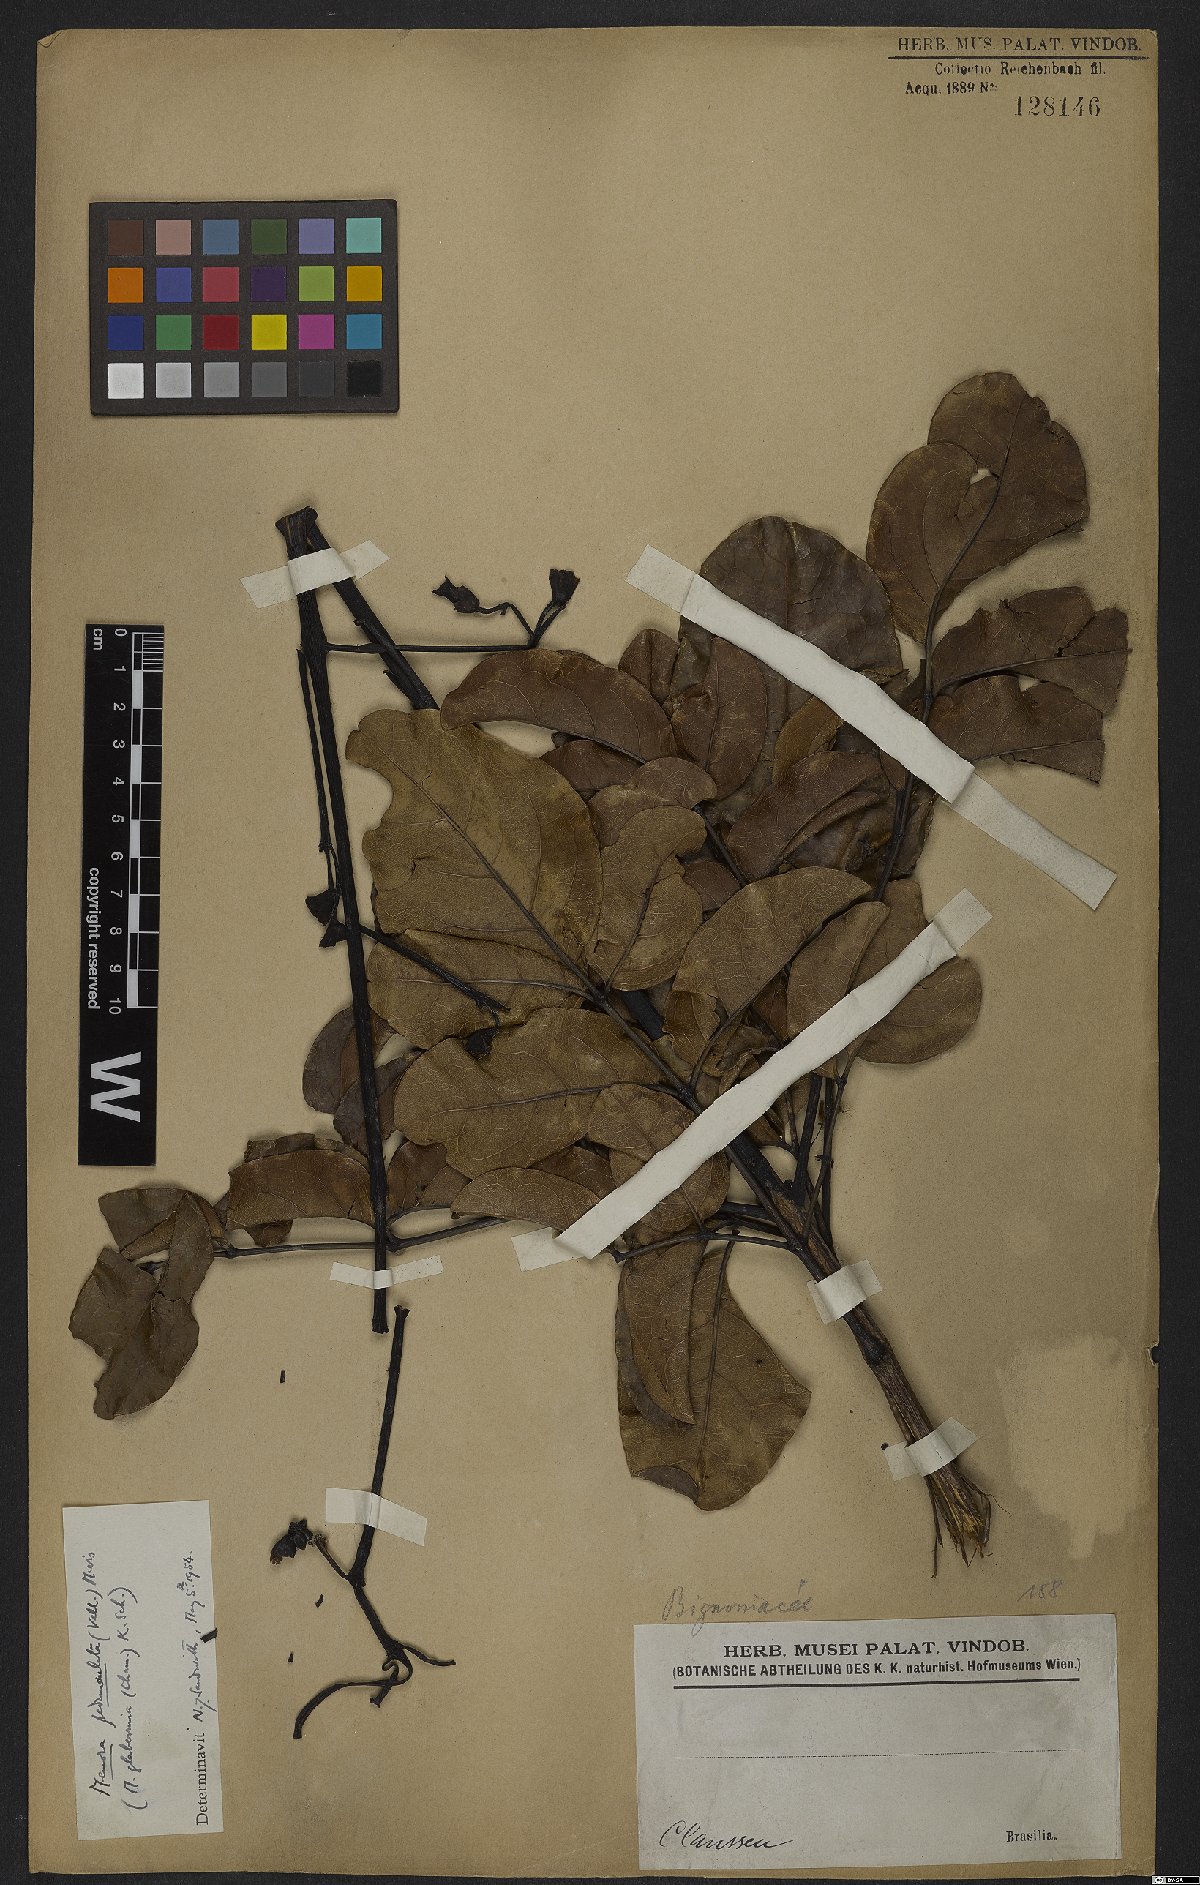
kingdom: Plantae
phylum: Tracheophyta
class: Magnoliopsida
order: Lamiales
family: Bignoniaceae
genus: Adenocalymma
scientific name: Adenocalymma pedunculatum
